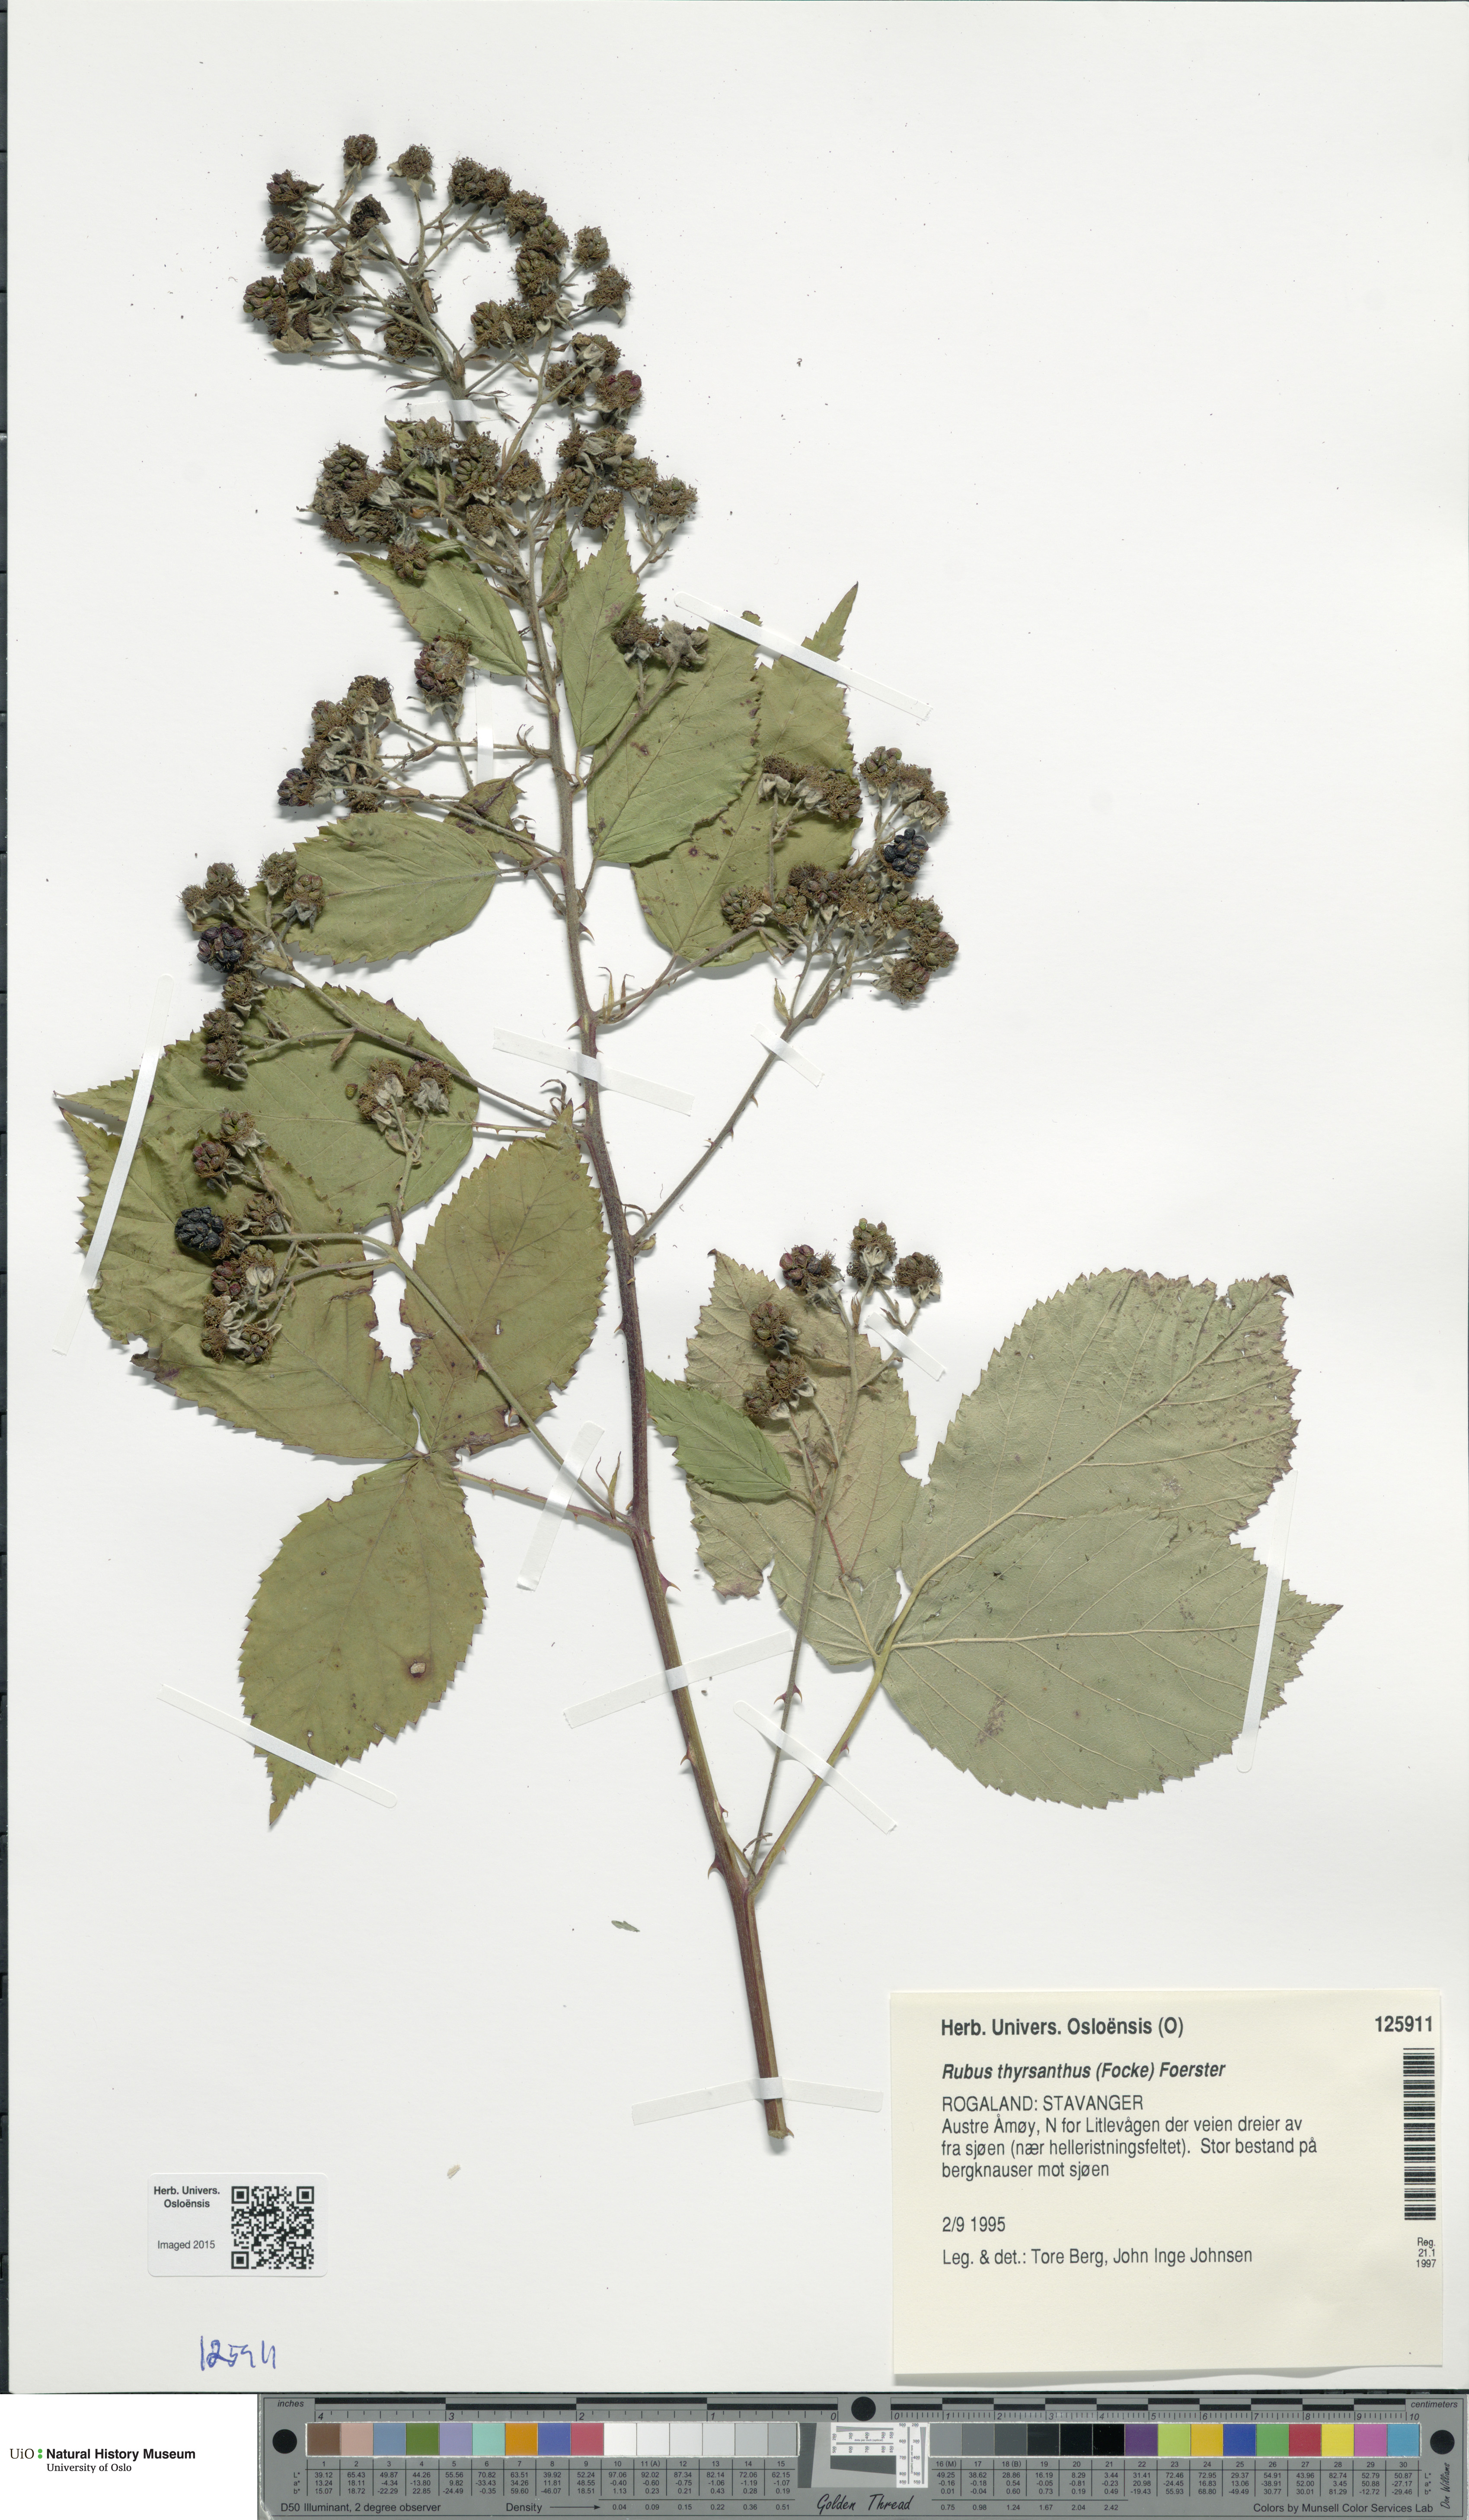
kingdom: Plantae
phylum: Tracheophyta
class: Magnoliopsida
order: Rosales
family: Rosaceae
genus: Rubus
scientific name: Rubus grabowskii
